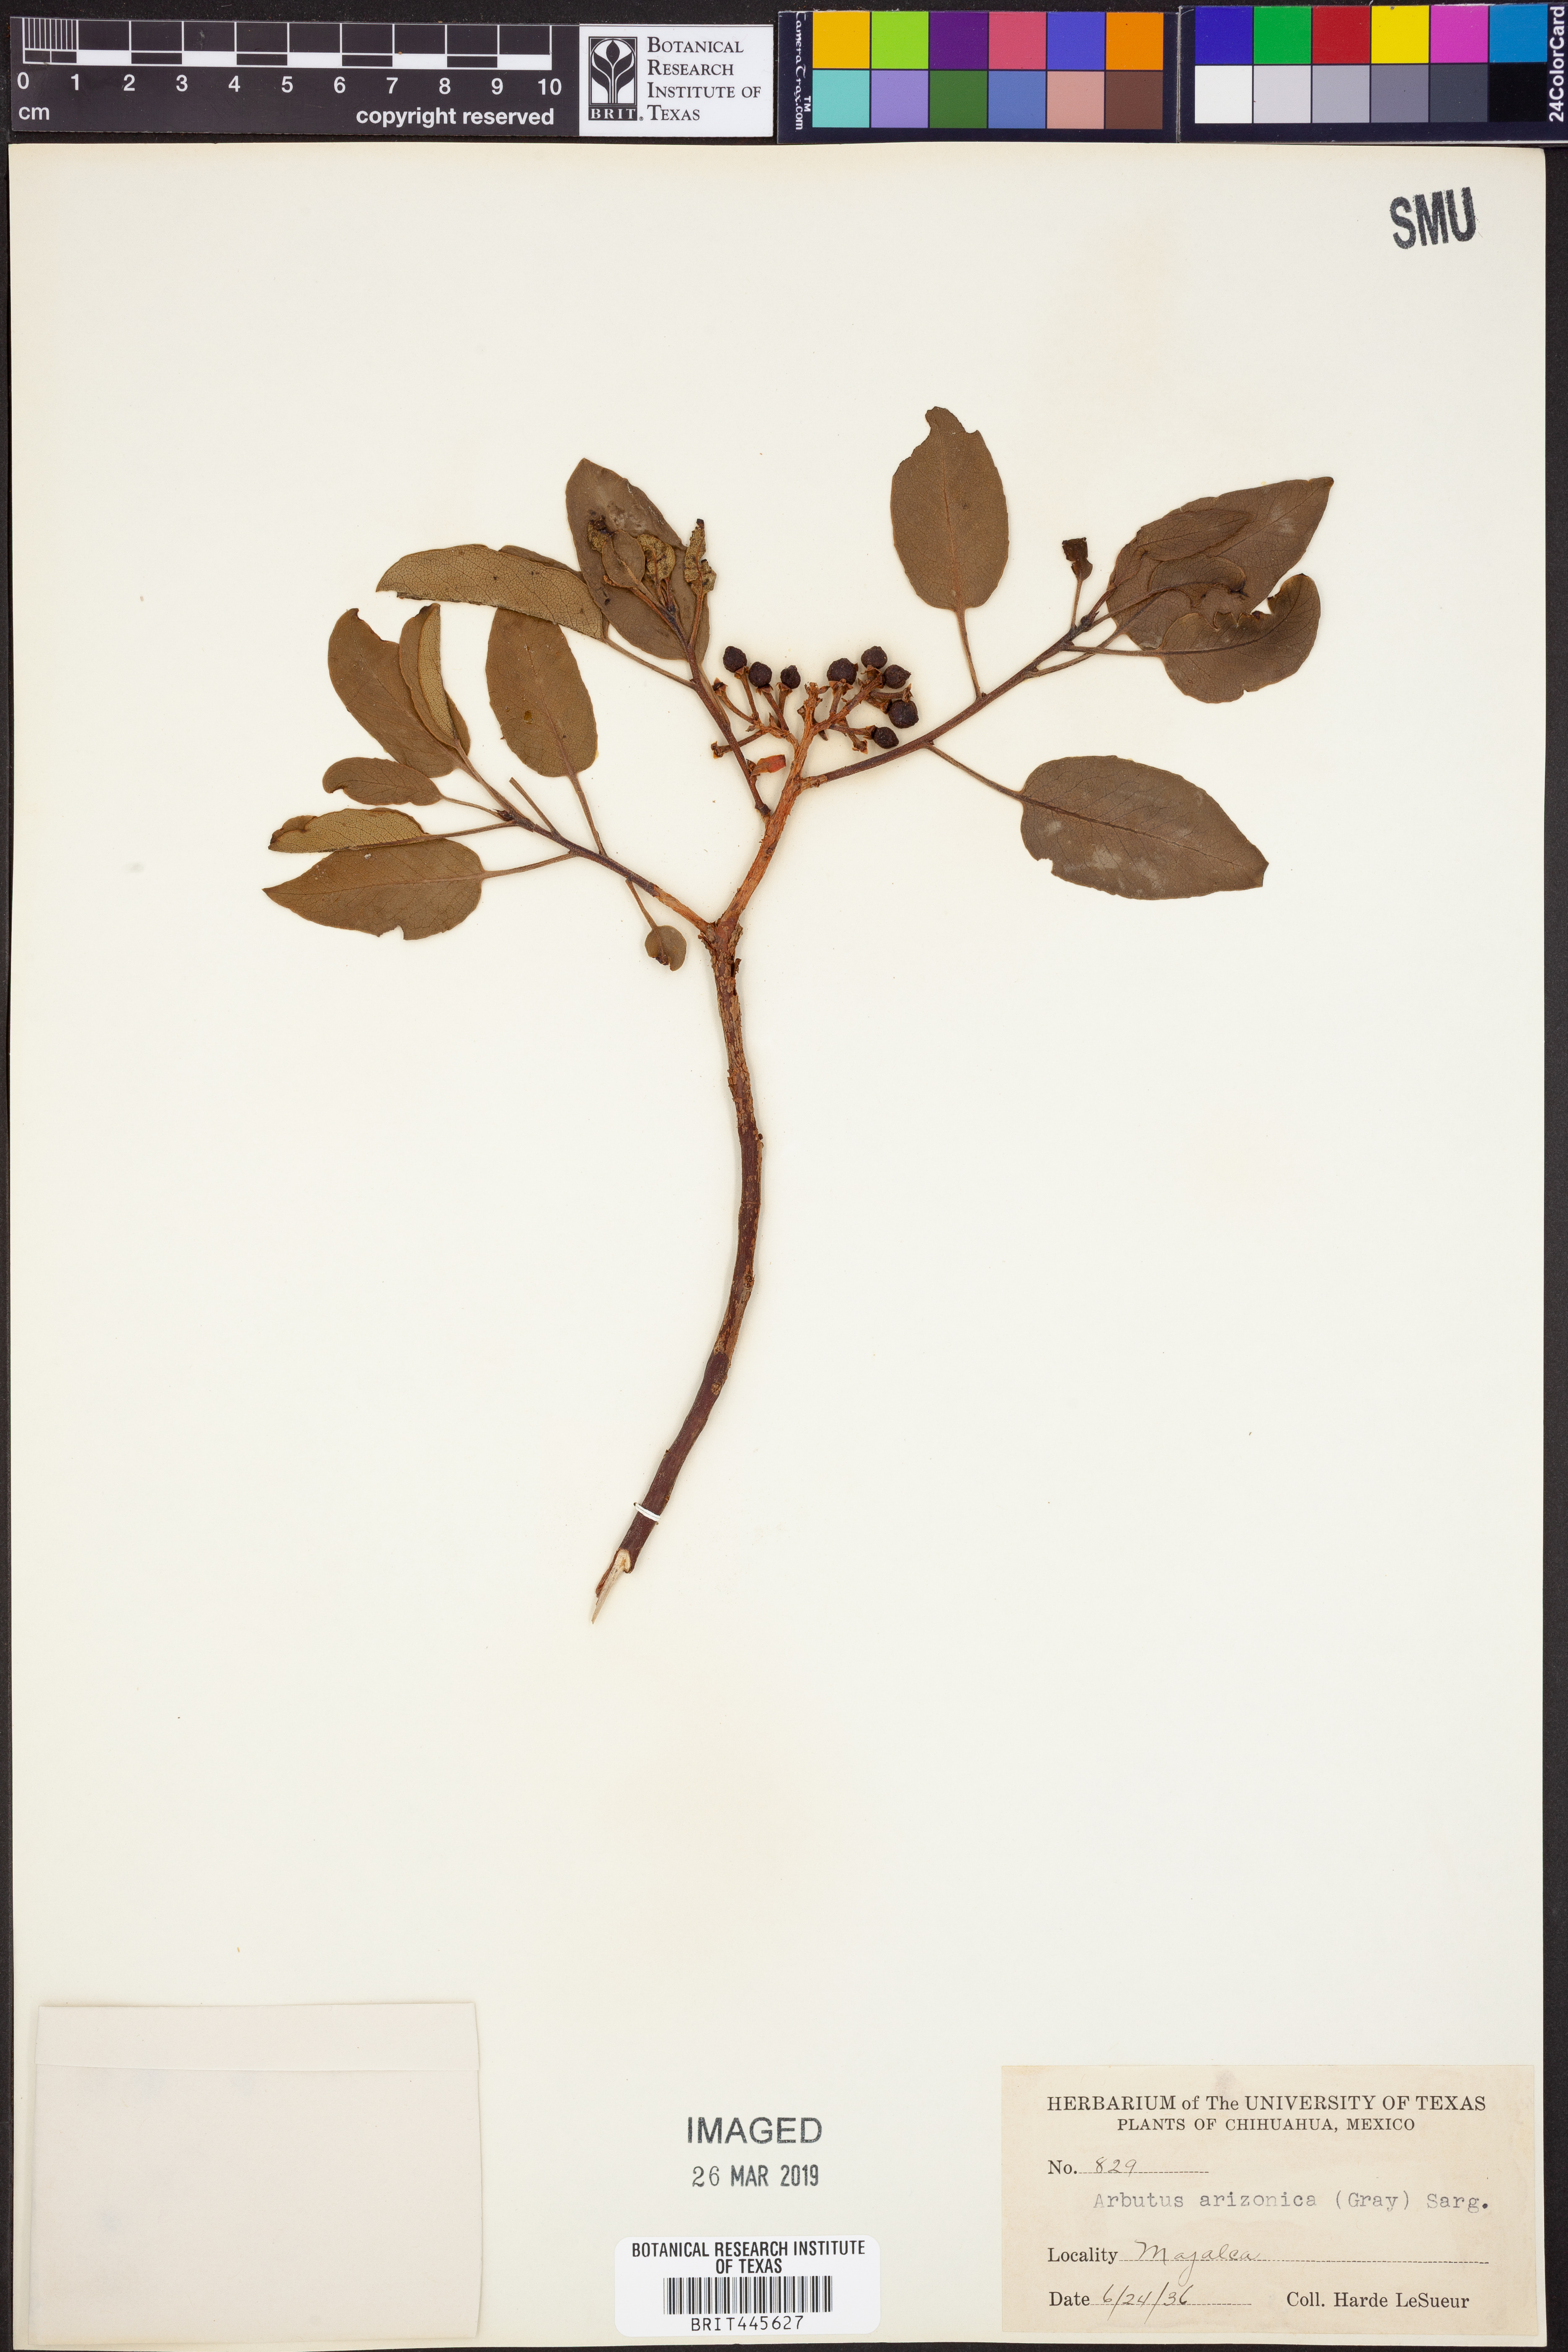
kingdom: Plantae
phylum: Tracheophyta
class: Magnoliopsida
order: Ericales
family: Ericaceae
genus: Arbutus
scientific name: Arbutus arizonica
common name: Arizona madrone
